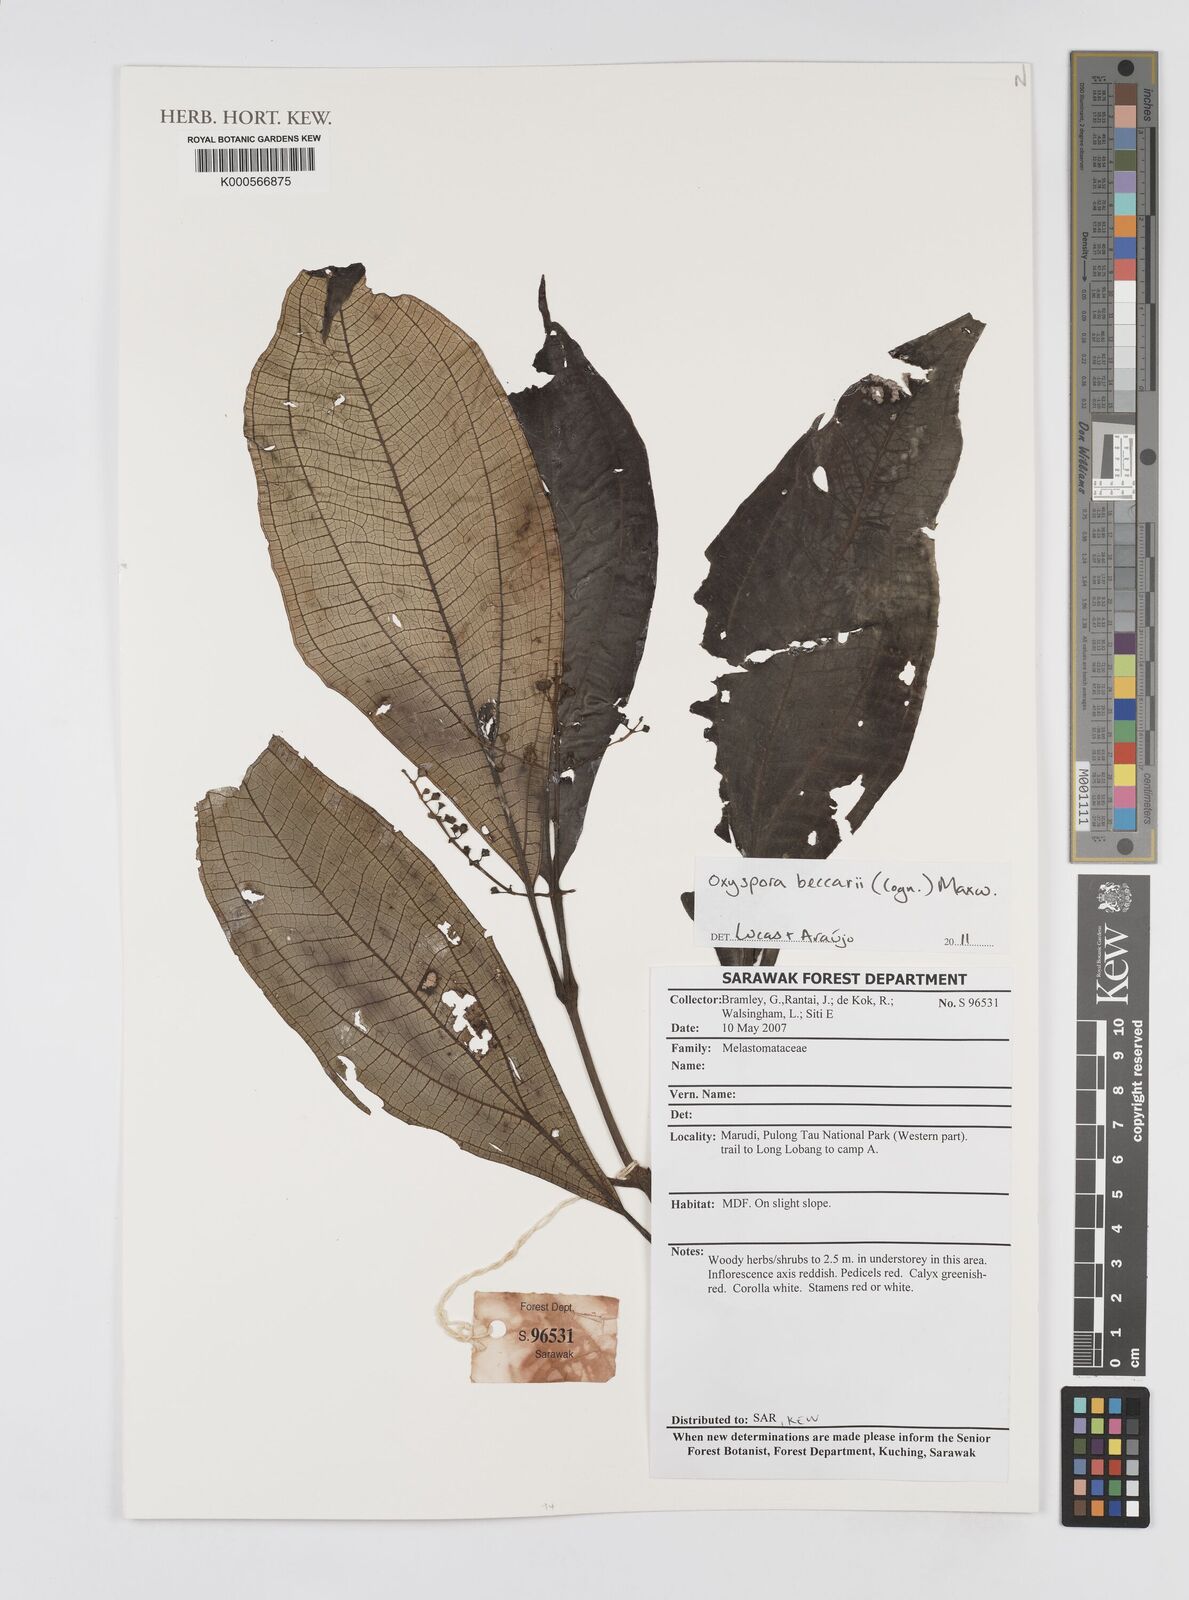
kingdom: Plantae
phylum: Tracheophyta
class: Magnoliopsida
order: Myrtales
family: Melastomataceae
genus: Oxyspora
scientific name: Oxyspora beccarii
